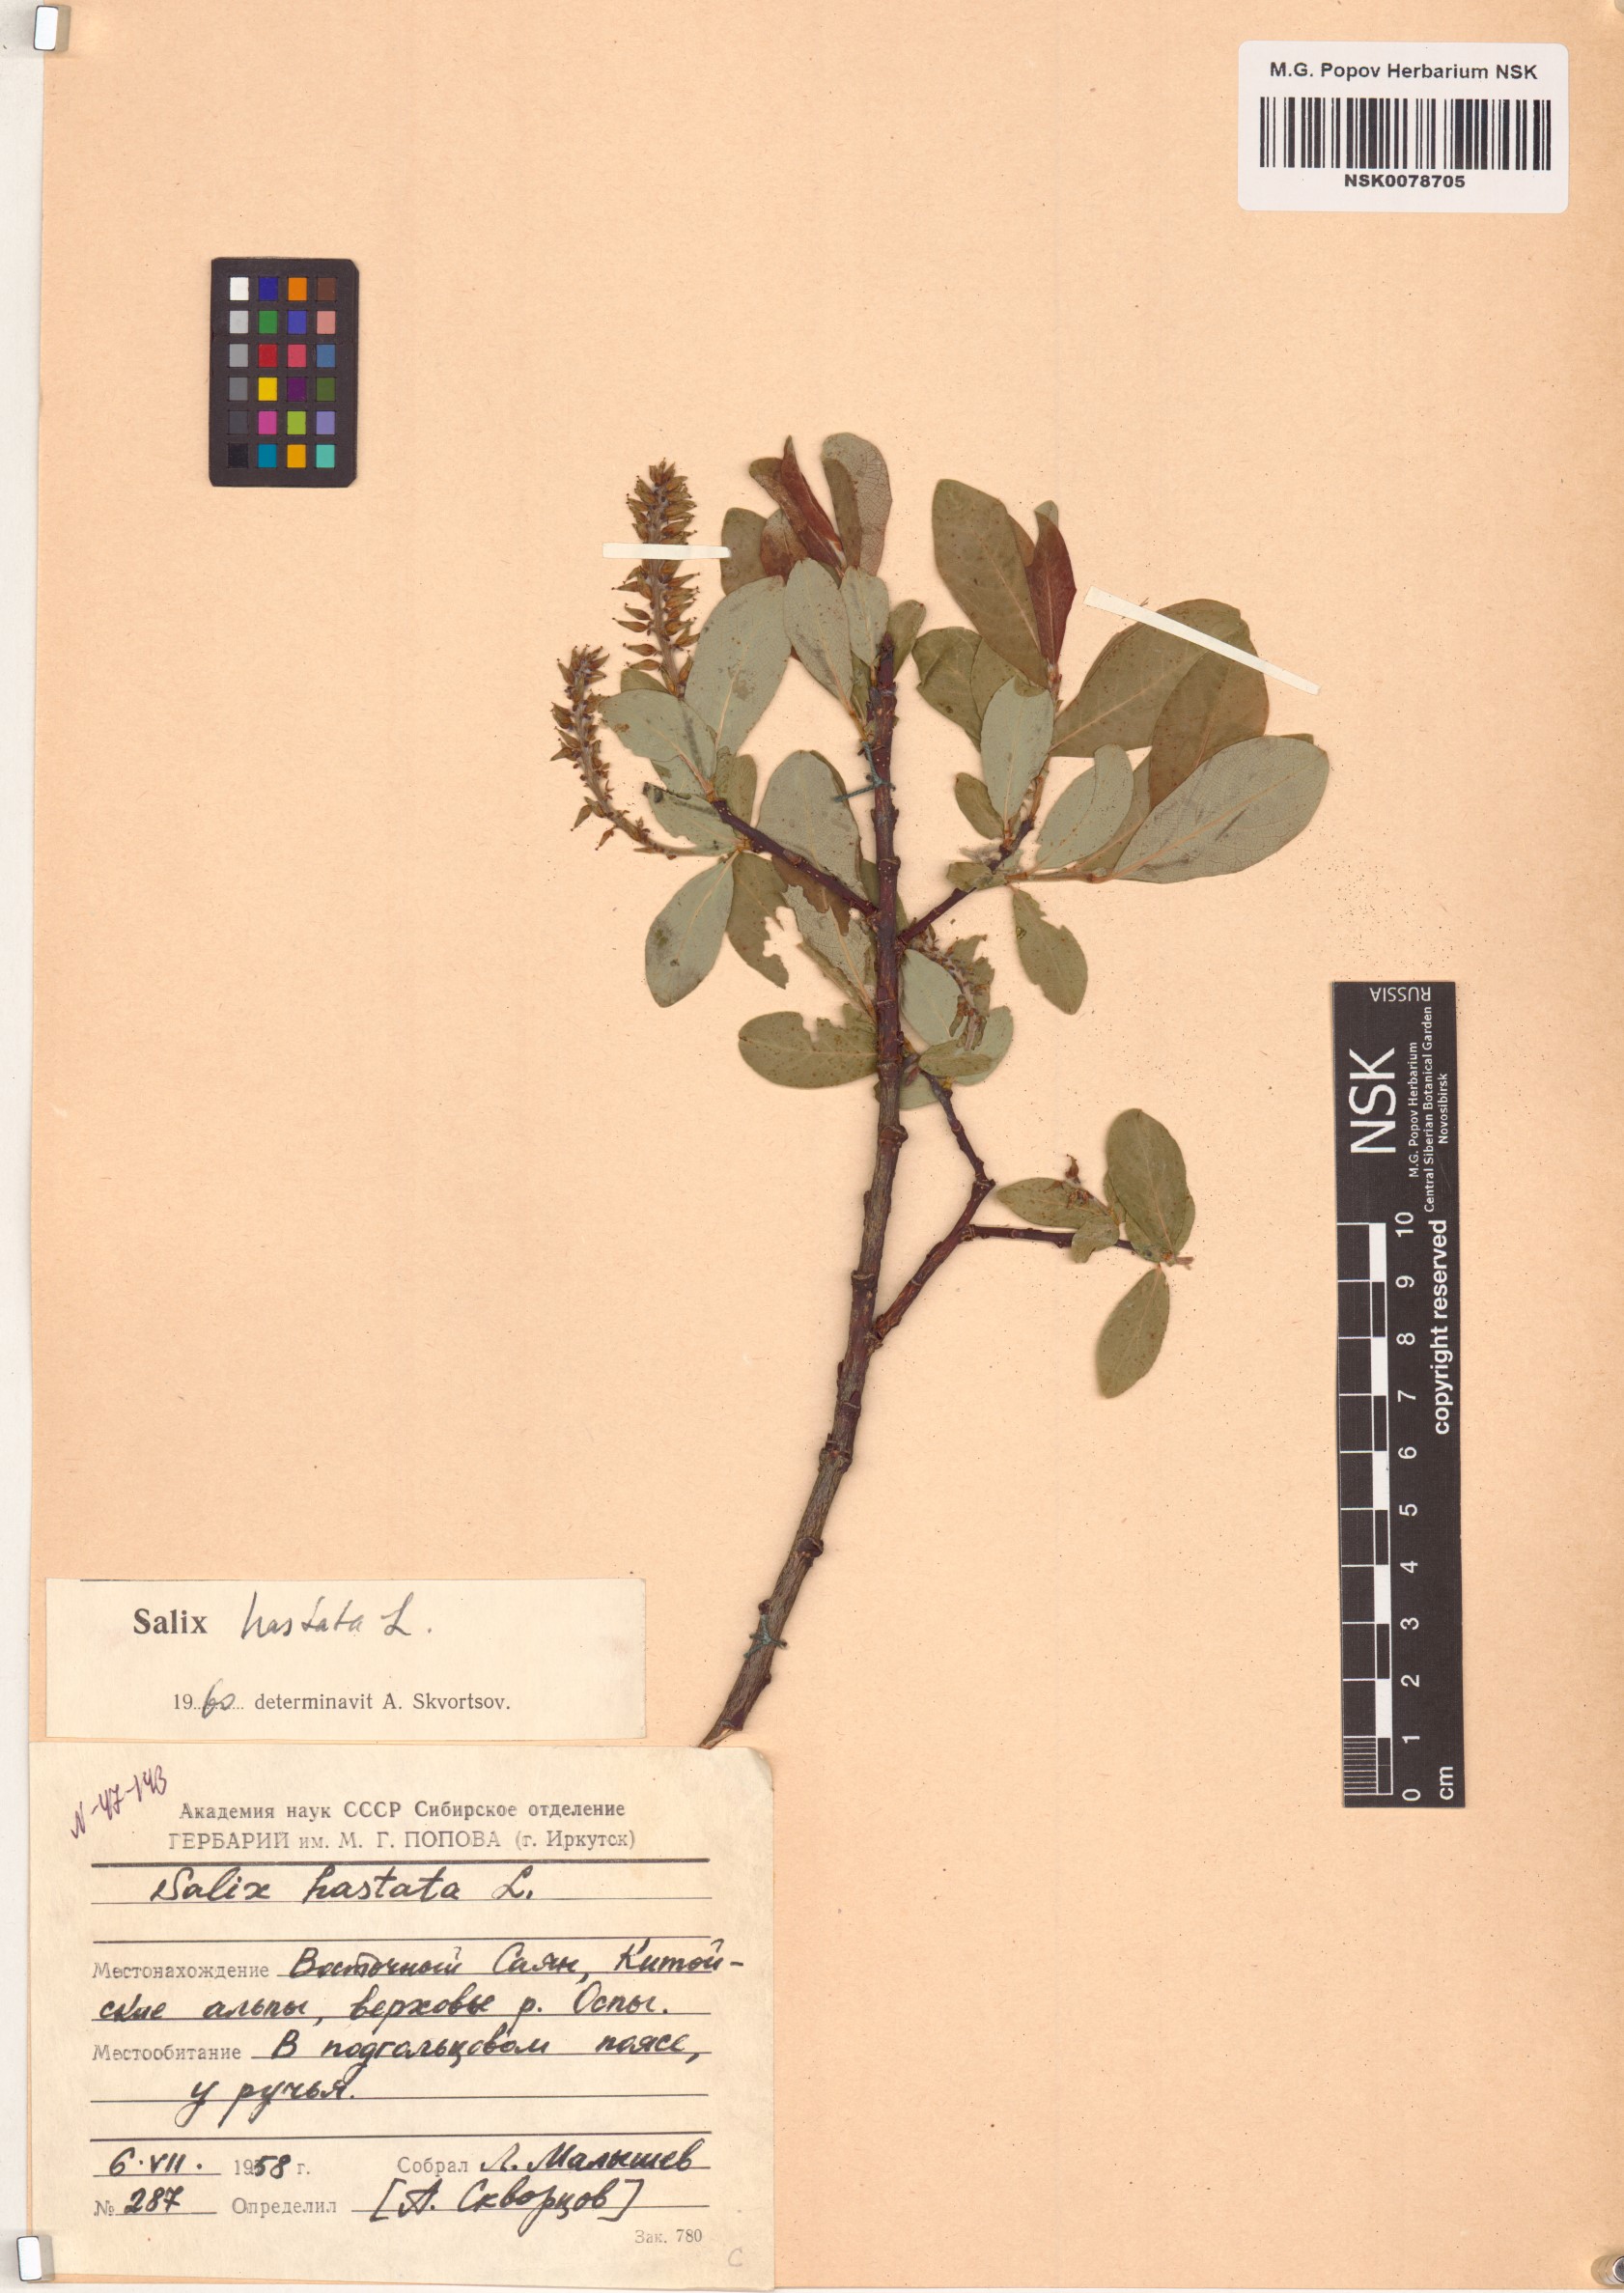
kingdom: Plantae
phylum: Tracheophyta
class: Magnoliopsida
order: Malpighiales
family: Salicaceae
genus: Salix
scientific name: Salix hastata
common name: Halberd willow
